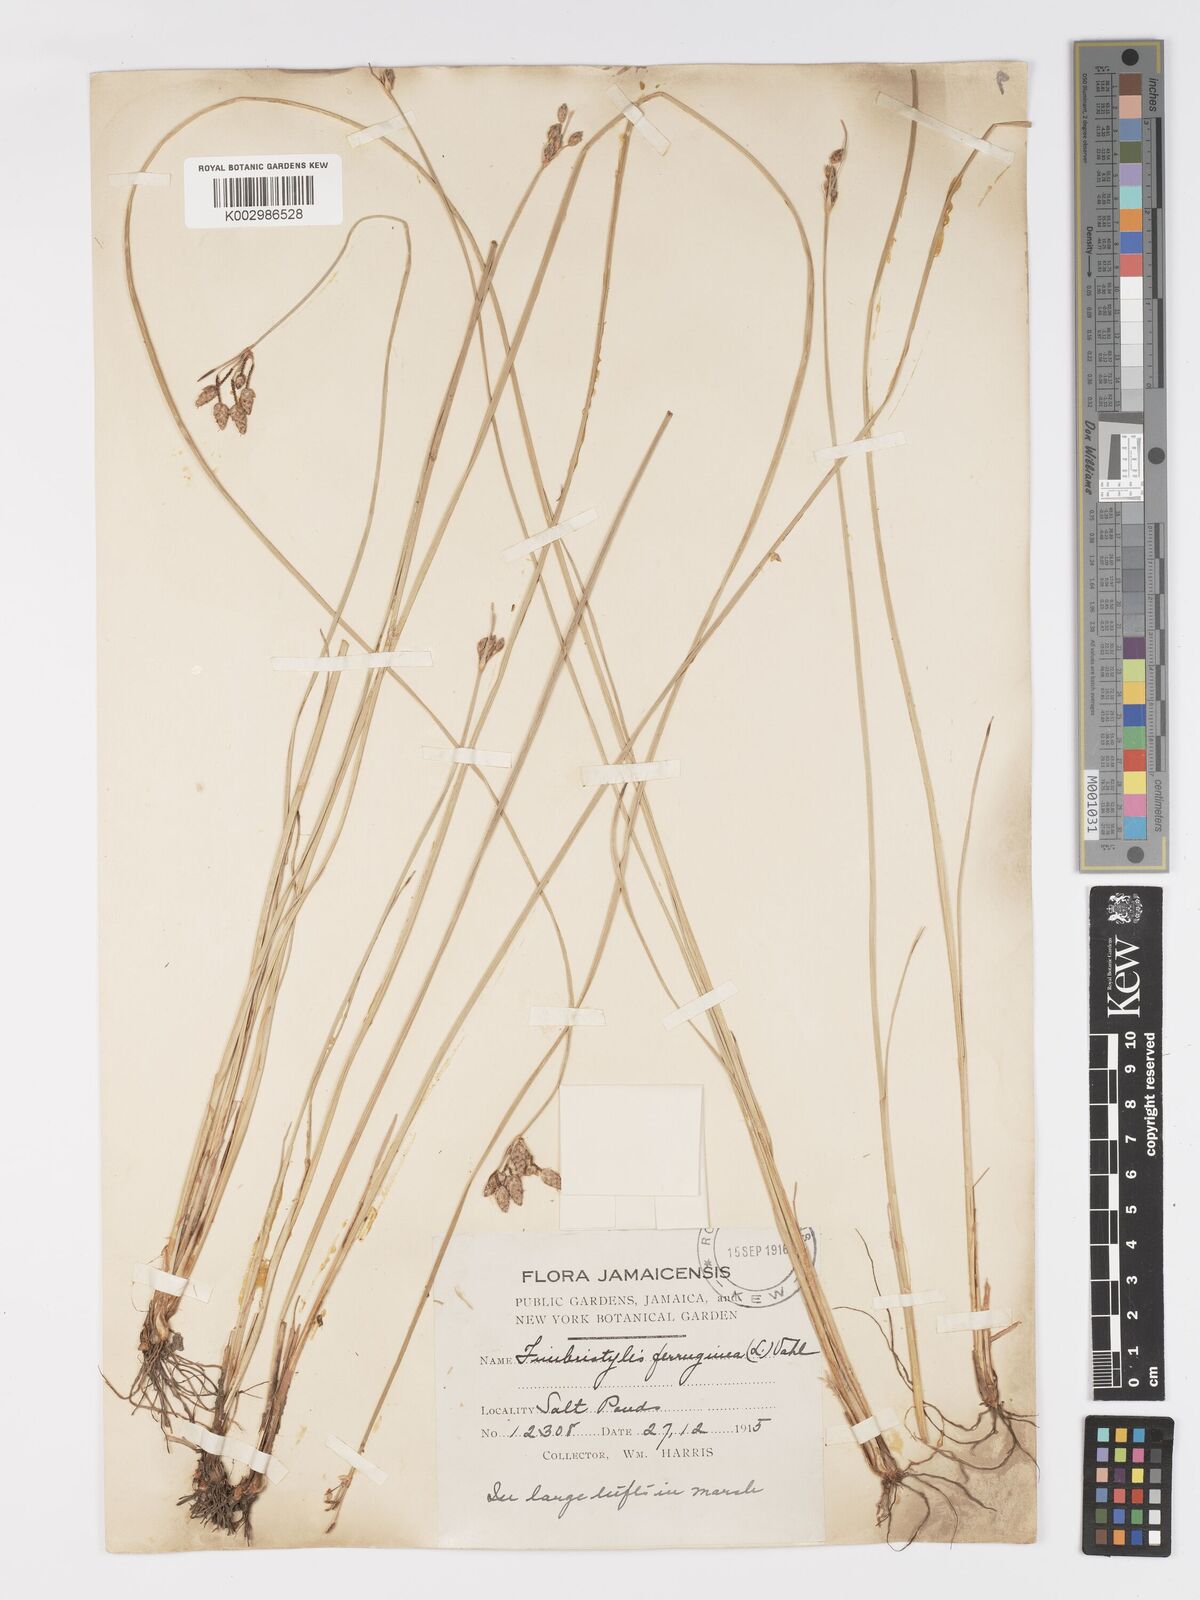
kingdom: Plantae
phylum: Tracheophyta
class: Liliopsida
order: Poales
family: Cyperaceae
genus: Fimbristylis
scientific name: Fimbristylis ferruginea
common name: West indian fimbry
